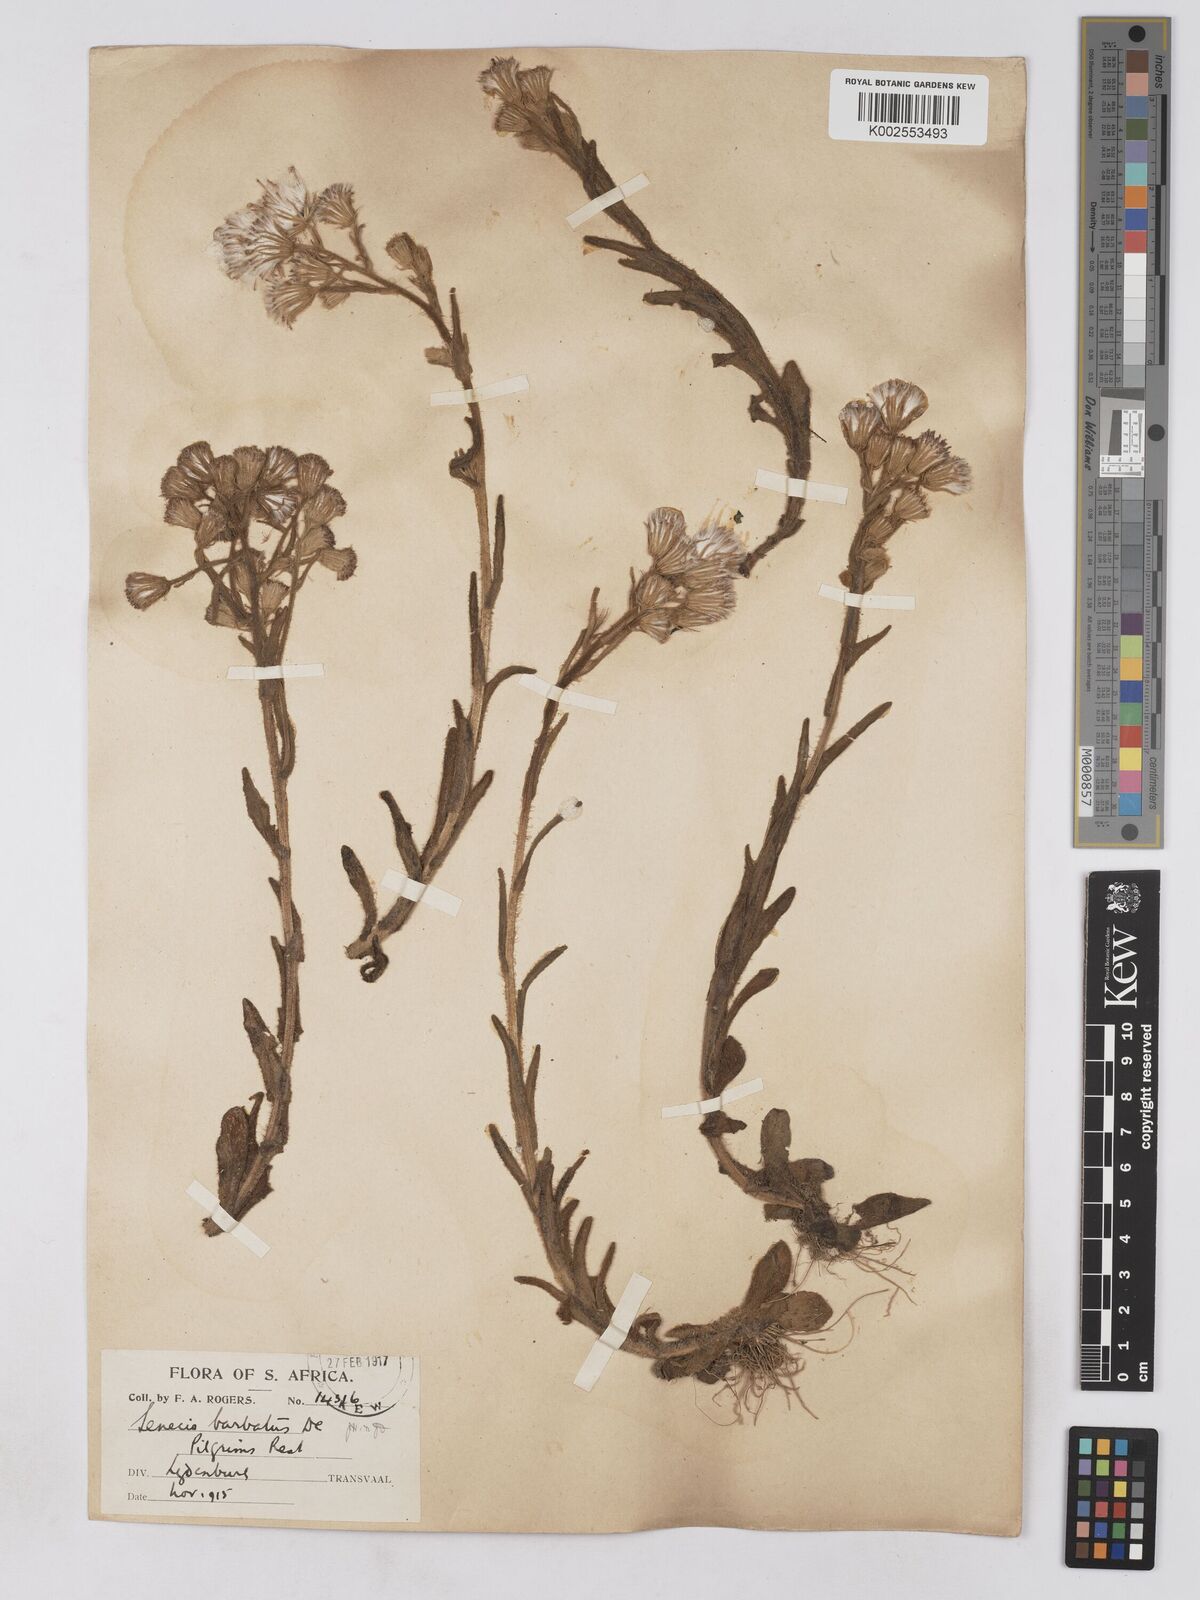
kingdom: Plantae
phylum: Tracheophyta
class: Magnoliopsida
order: Asterales
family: Asteraceae
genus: Senecio
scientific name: Senecio barbatus
